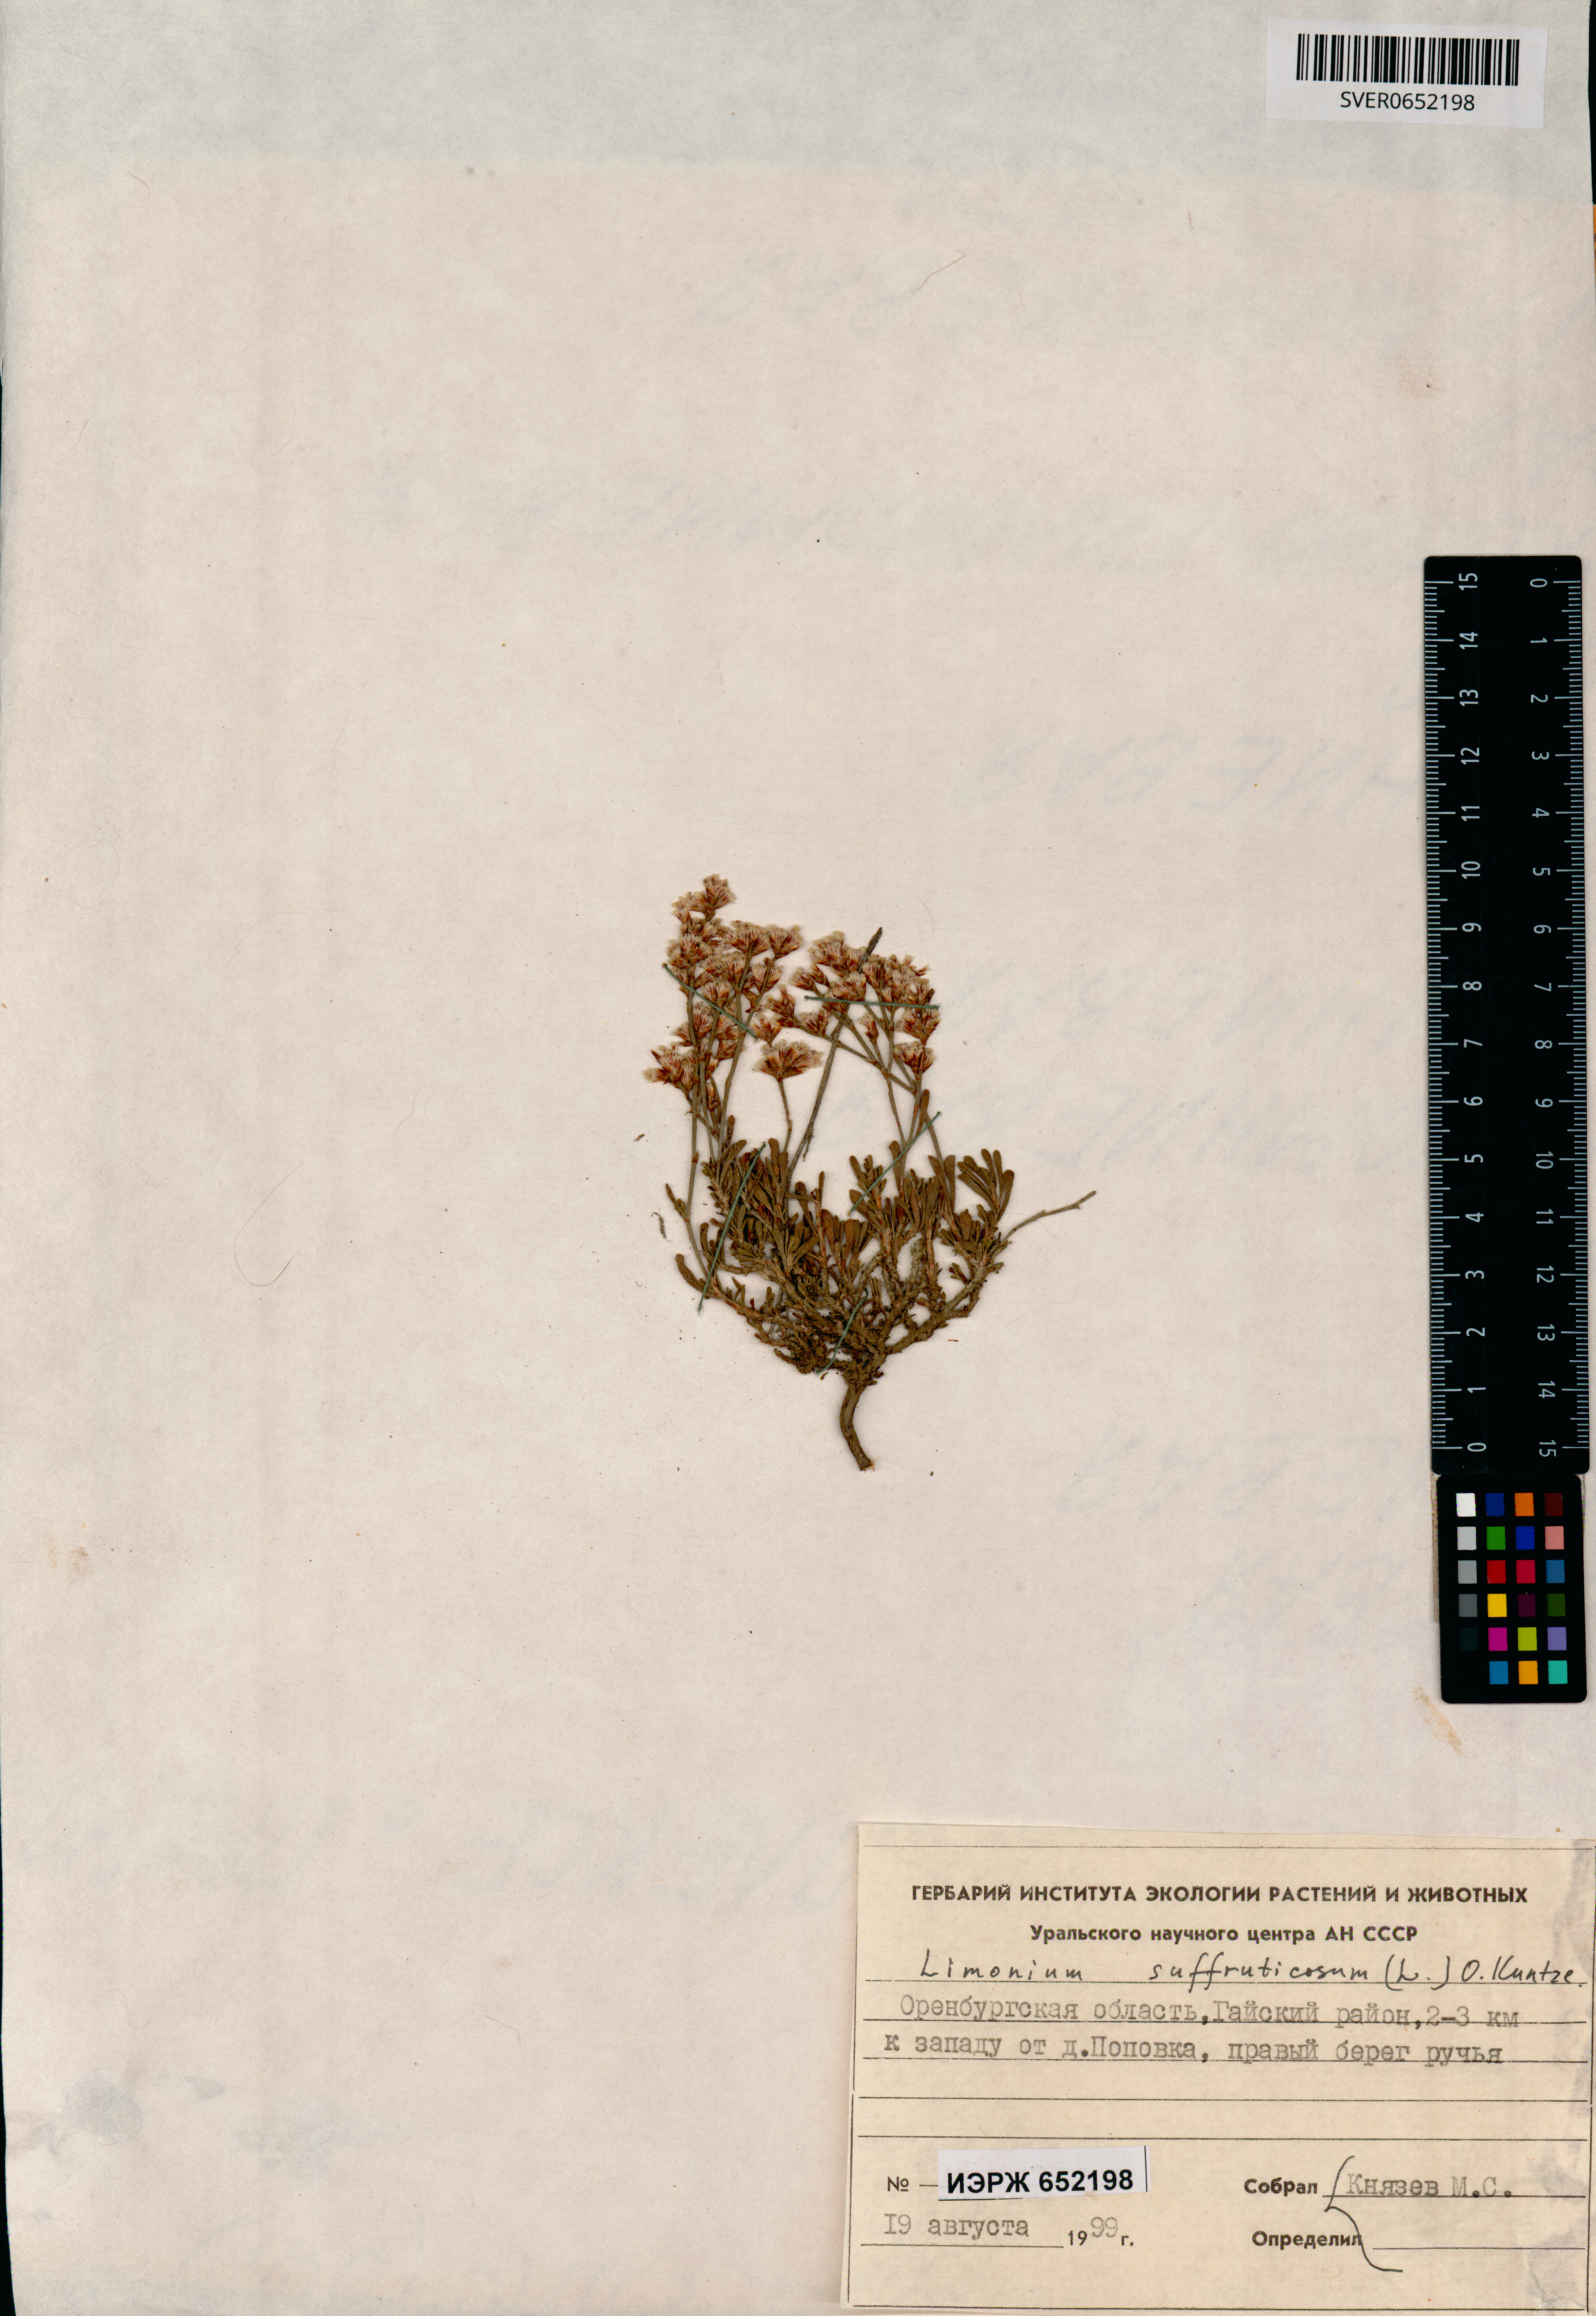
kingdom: Plantae
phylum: Tracheophyta
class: Magnoliopsida
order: Caryophyllales
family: Plumbaginaceae
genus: Limonium
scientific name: Limonium suffruticosum
